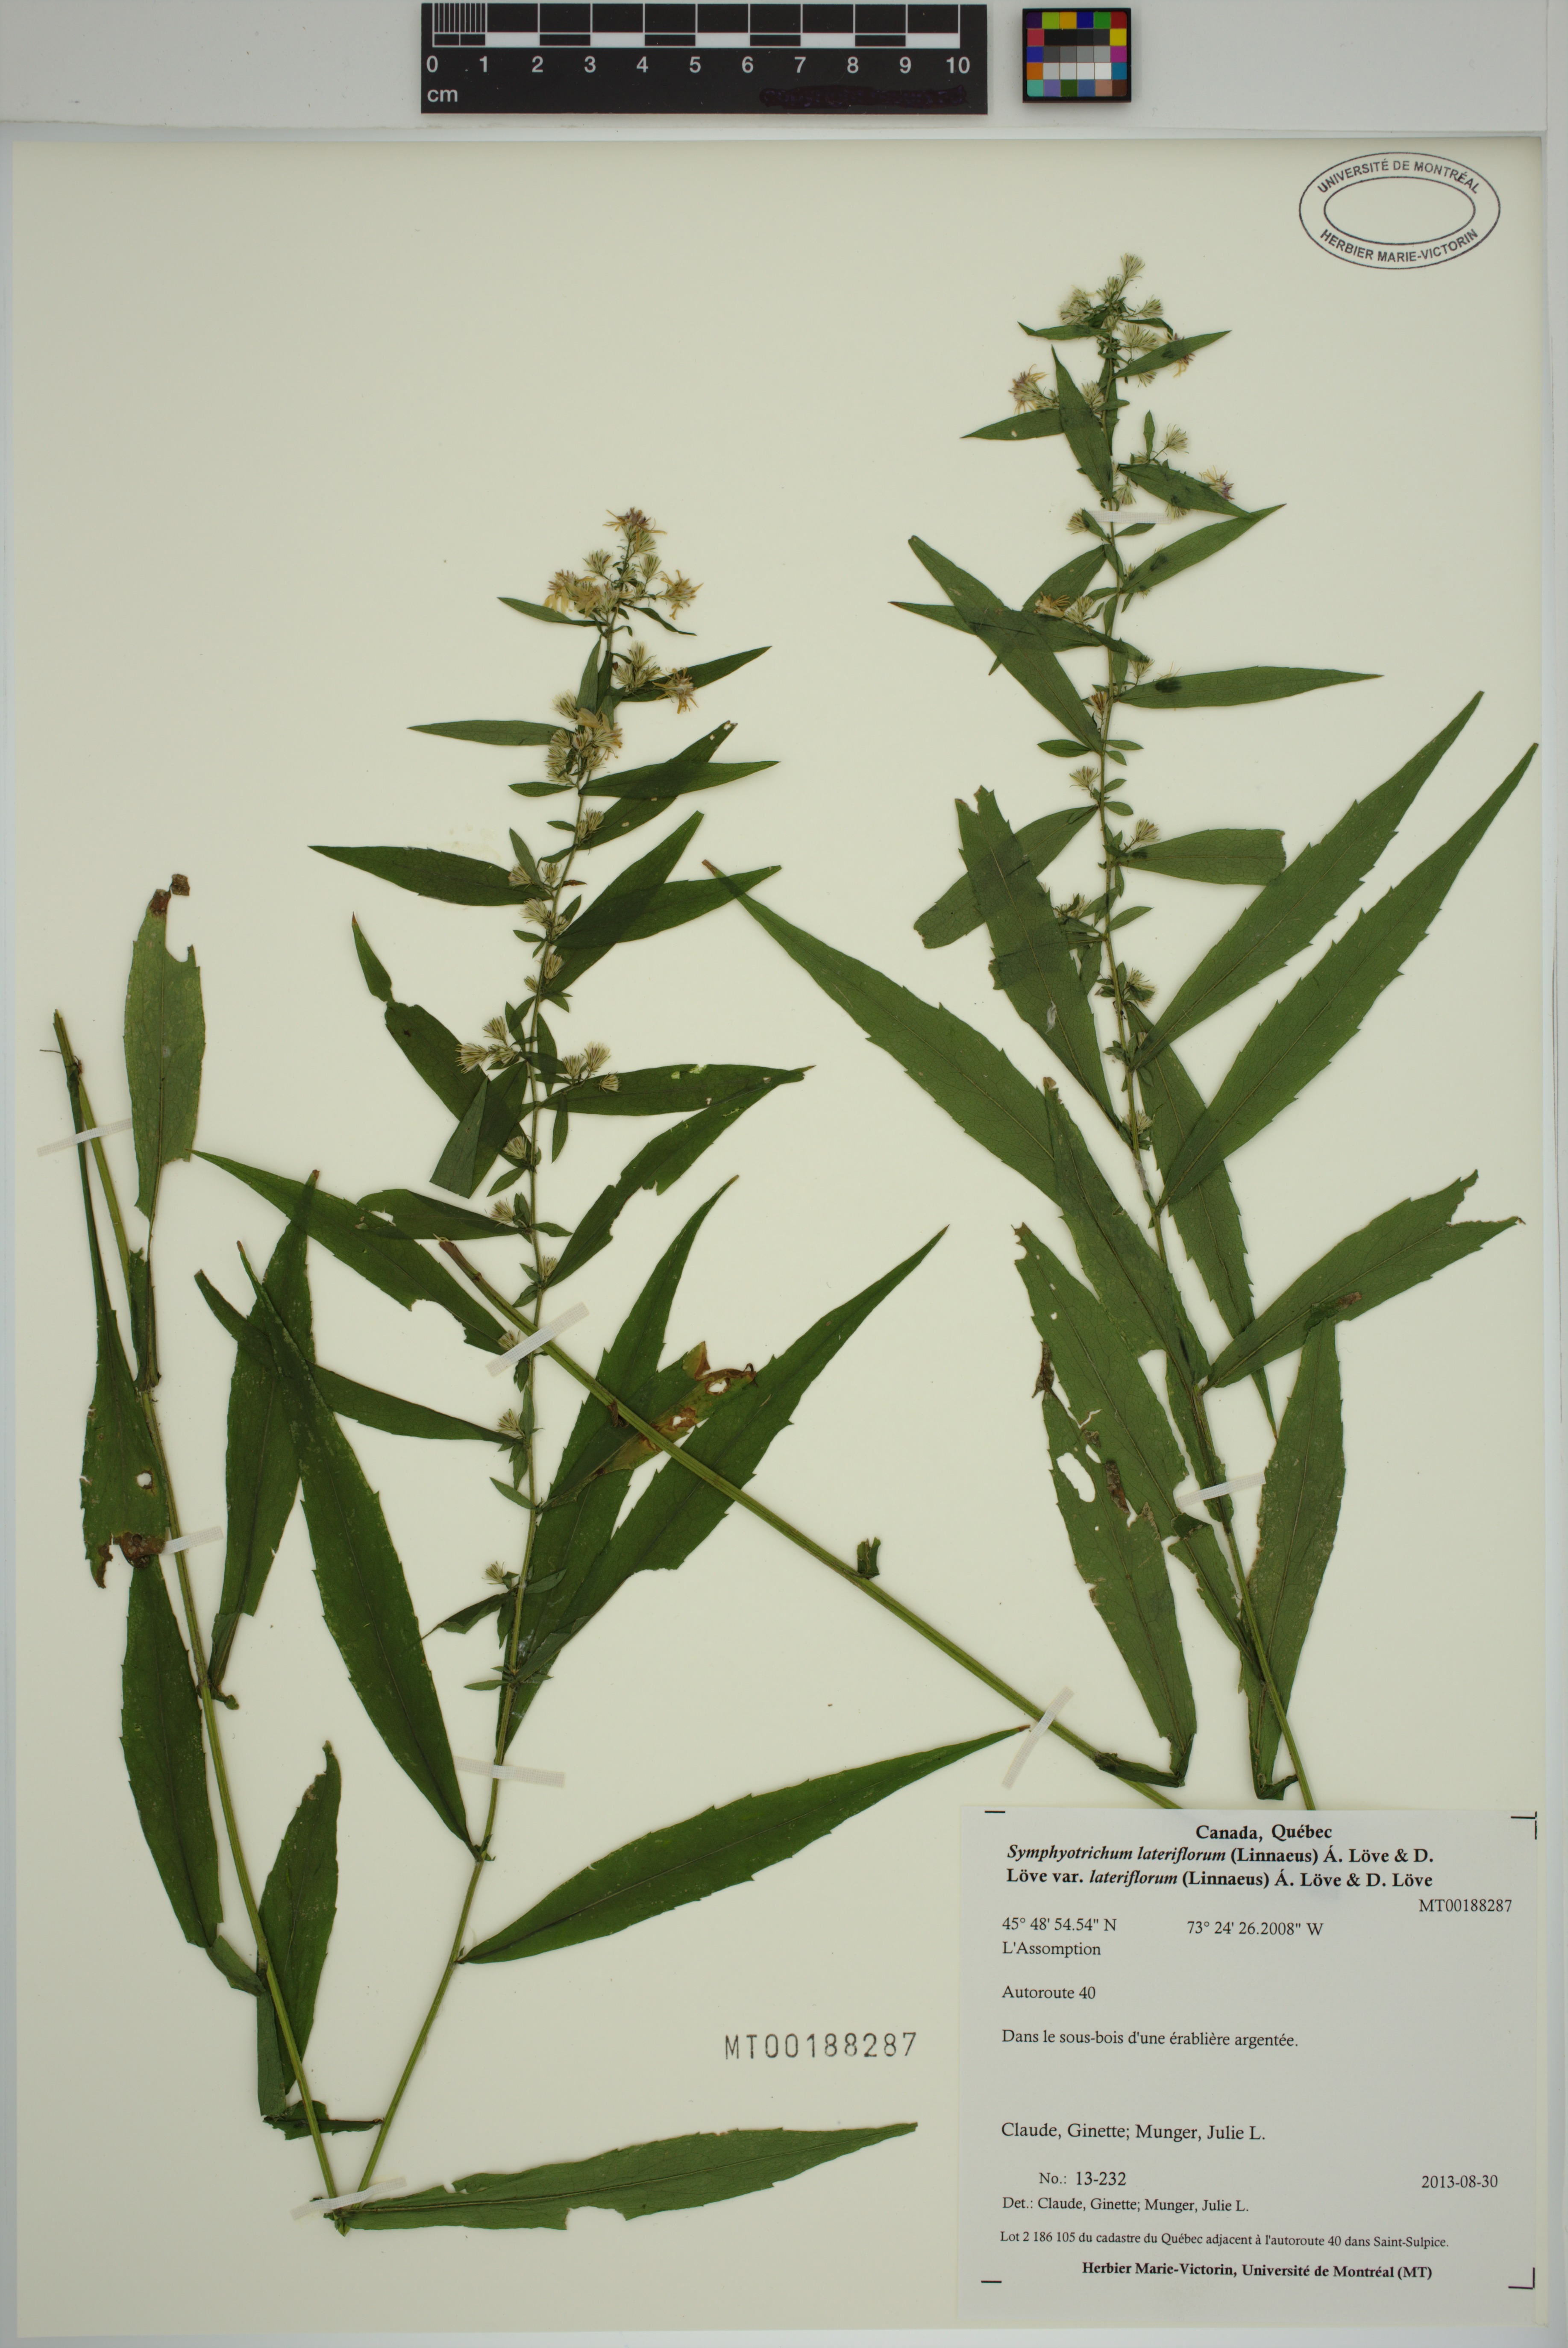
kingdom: Plantae
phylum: Tracheophyta
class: Magnoliopsida
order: Asterales
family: Asteraceae
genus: Symphyotrichum
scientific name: Symphyotrichum lateriflorum
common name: Calico aster
